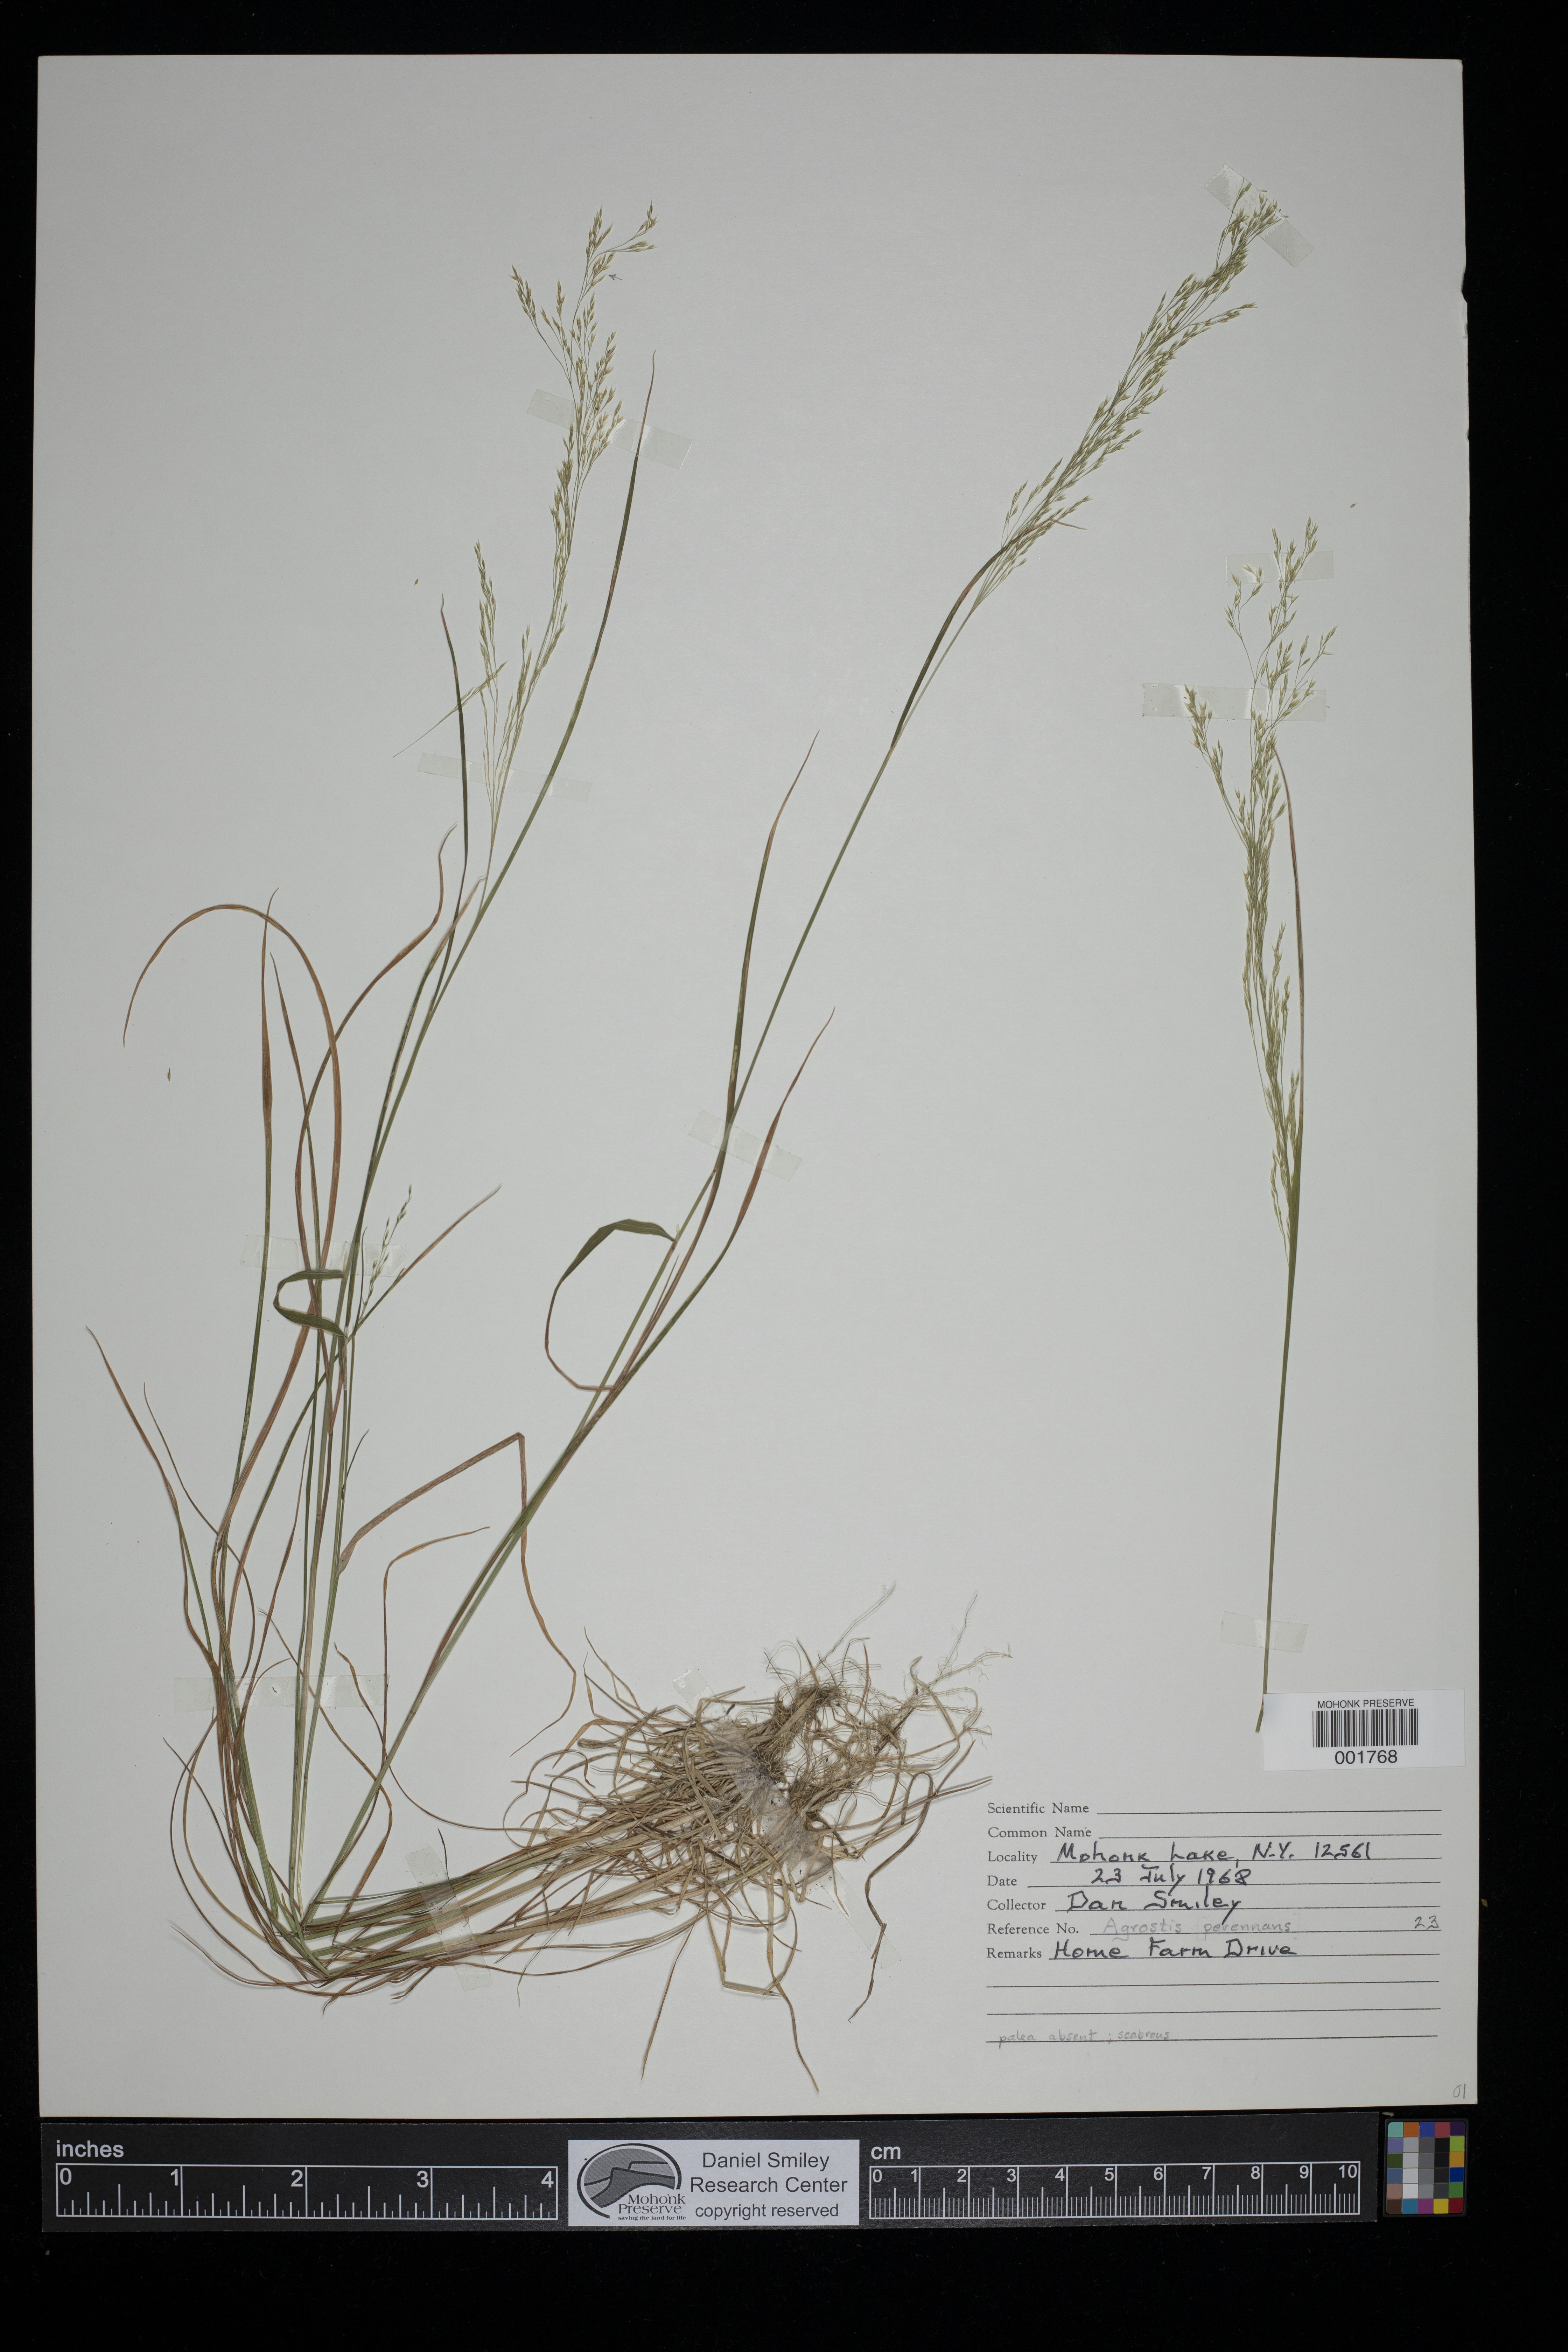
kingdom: Plantae
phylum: Tracheophyta
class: Liliopsida
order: Poales
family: Poaceae
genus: Agrostis
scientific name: Agrostis perennans
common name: Autumn bent
